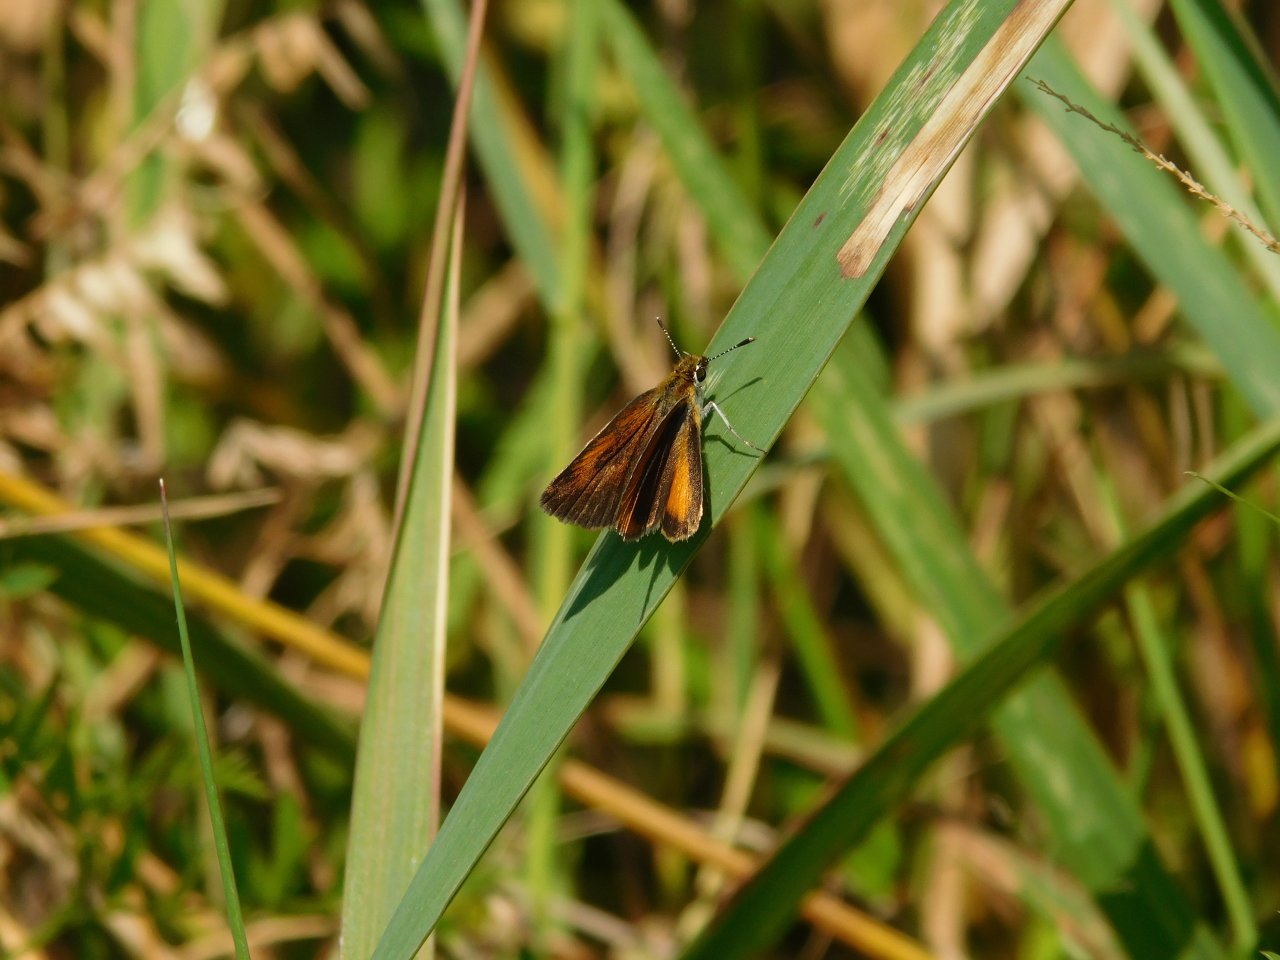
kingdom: Animalia
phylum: Arthropoda
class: Insecta
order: Lepidoptera
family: Hesperiidae
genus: Ancyloxypha
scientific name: Ancyloxypha numitor
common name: Least Skipper
